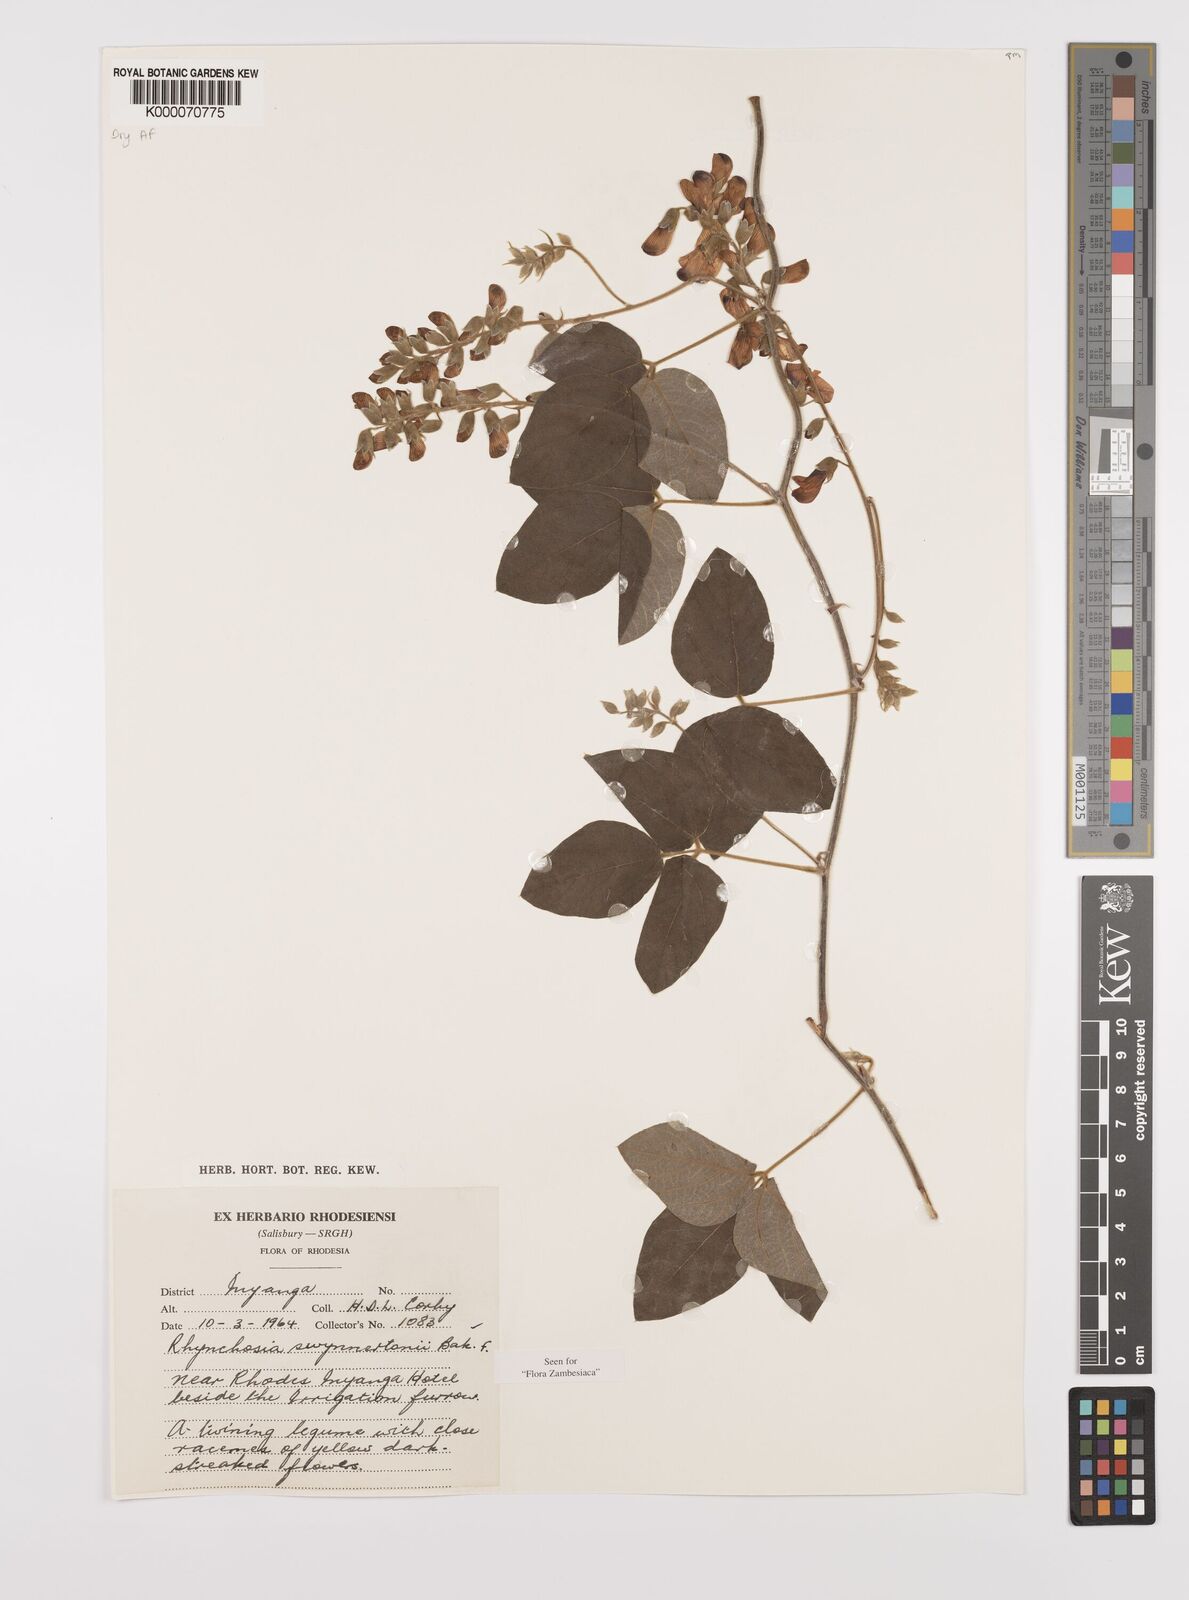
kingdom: Plantae
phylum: Tracheophyta
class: Magnoliopsida
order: Fabales
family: Fabaceae
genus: Rhynchosia
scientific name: Rhynchosia swynnertonii
